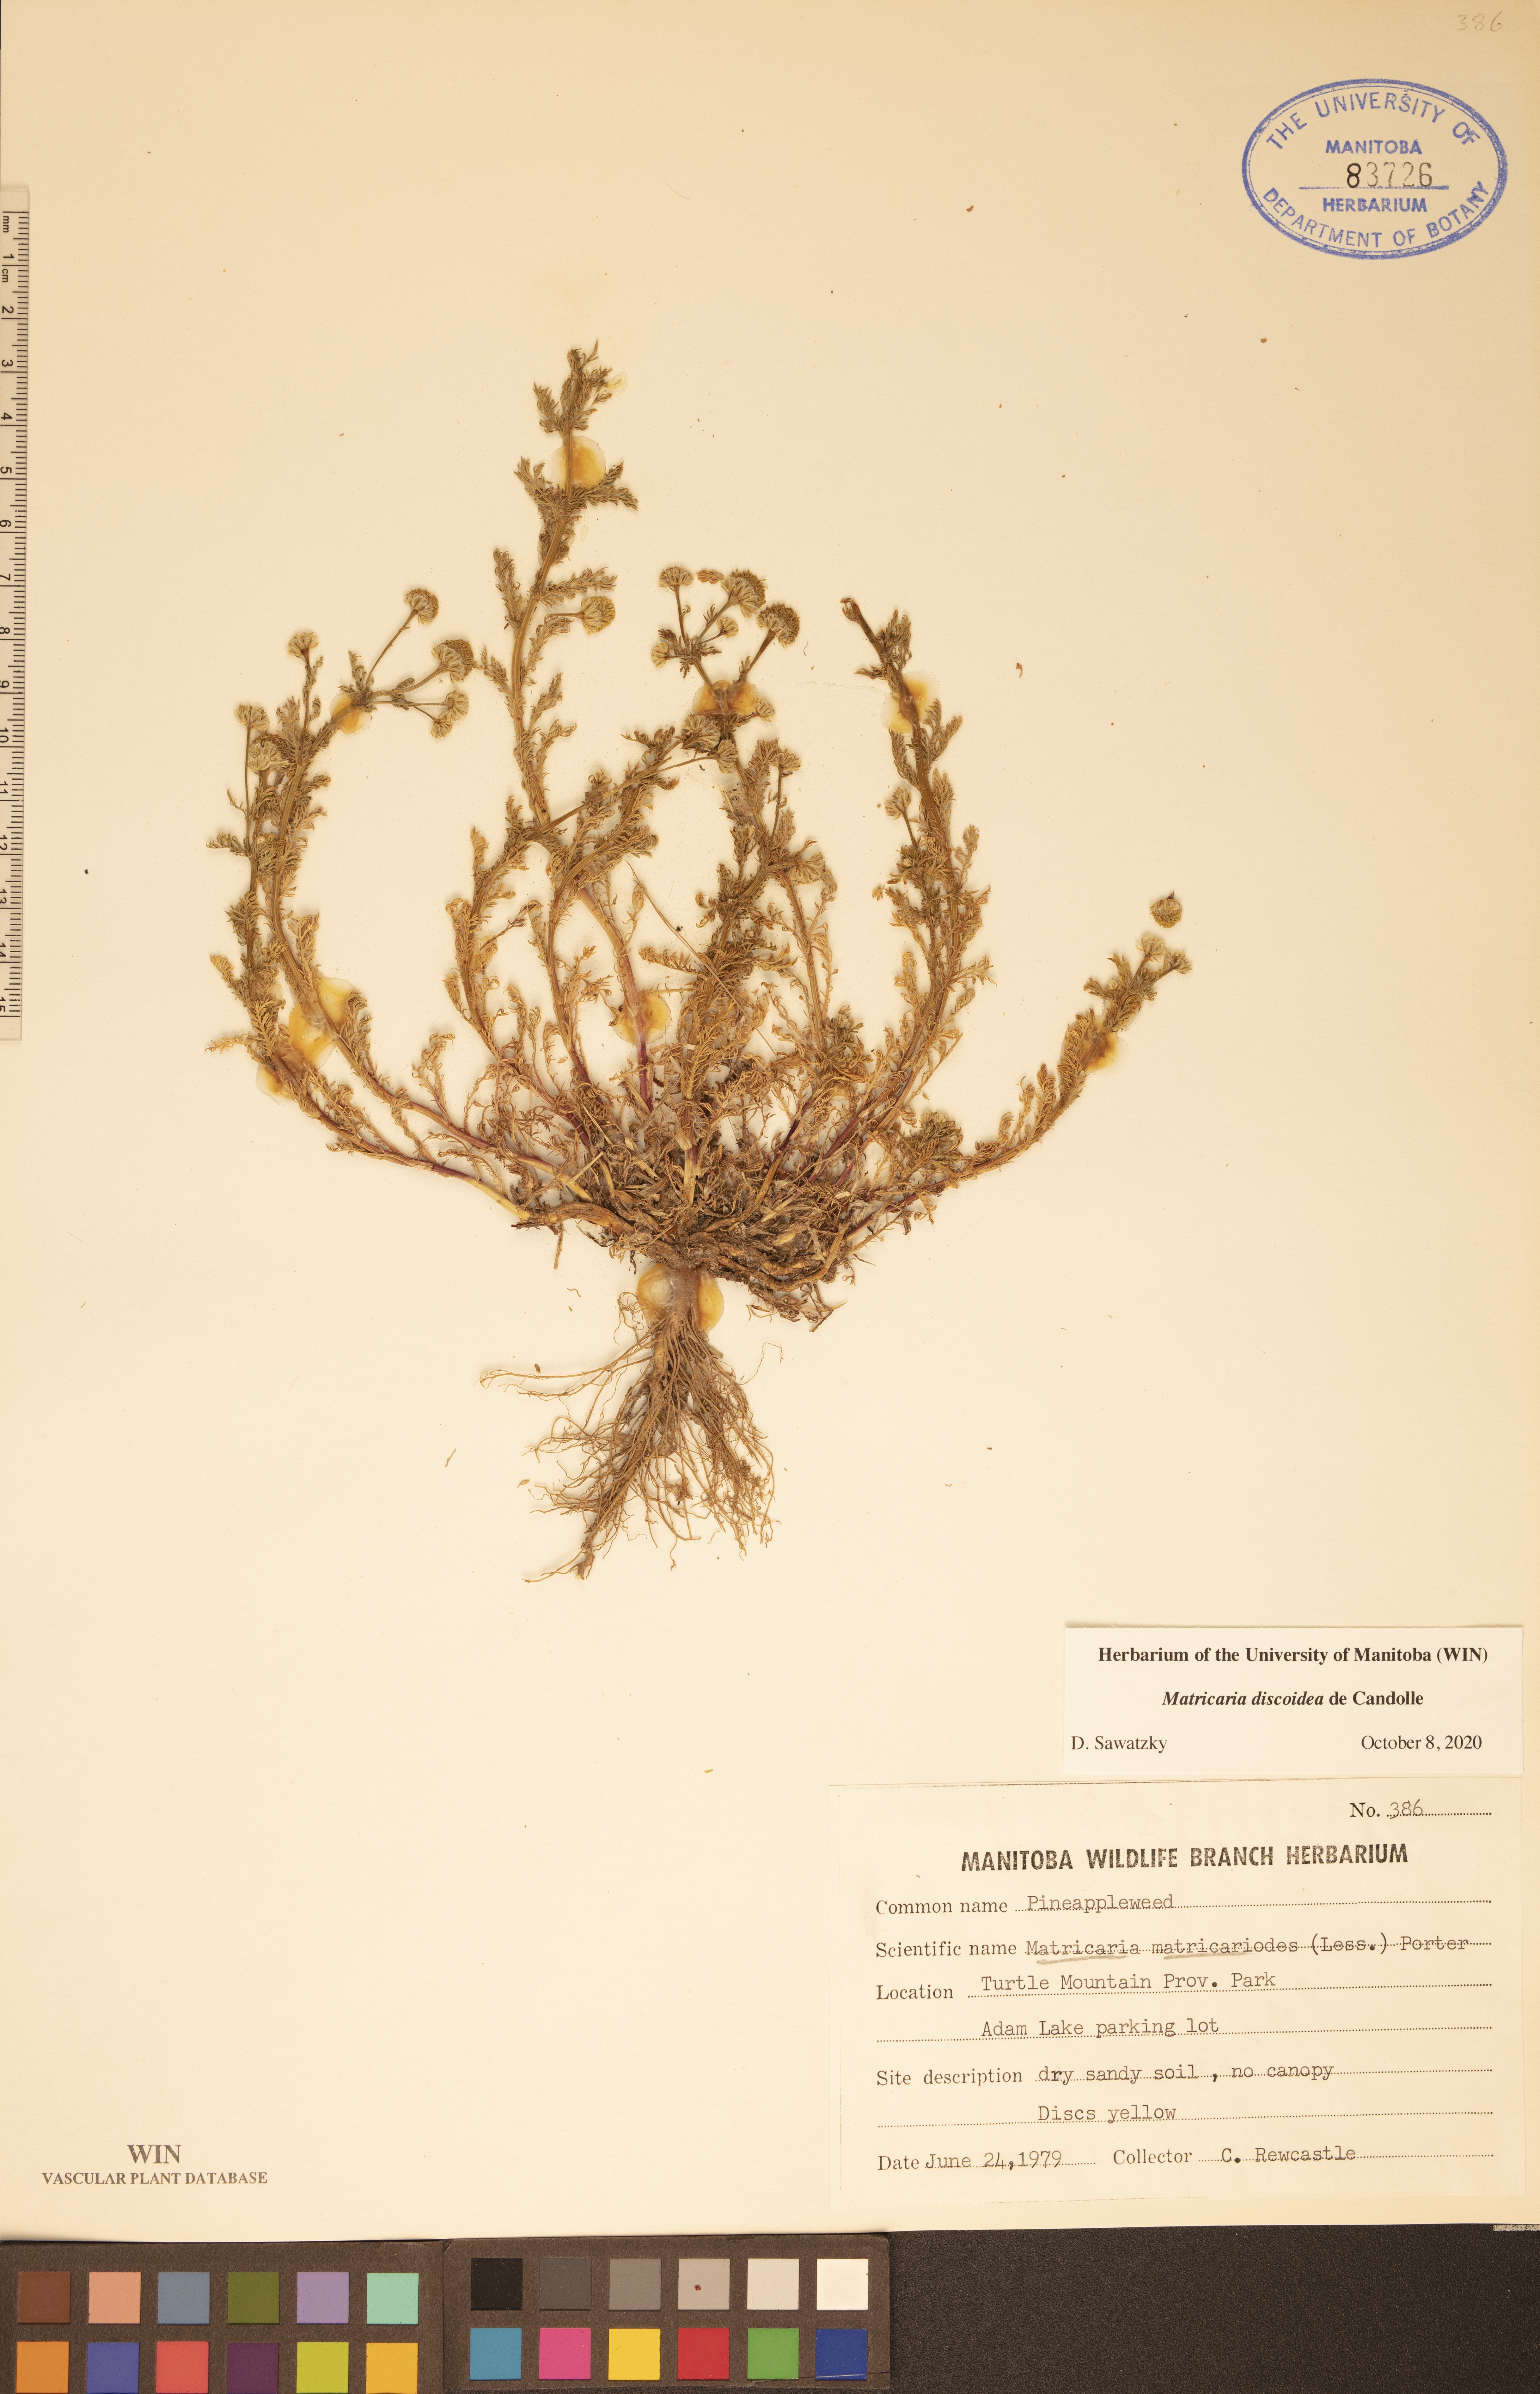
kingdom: Plantae
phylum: Tracheophyta
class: Magnoliopsida
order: Asterales
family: Asteraceae
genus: Matricaria
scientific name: Matricaria discoidea
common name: Disc mayweed
